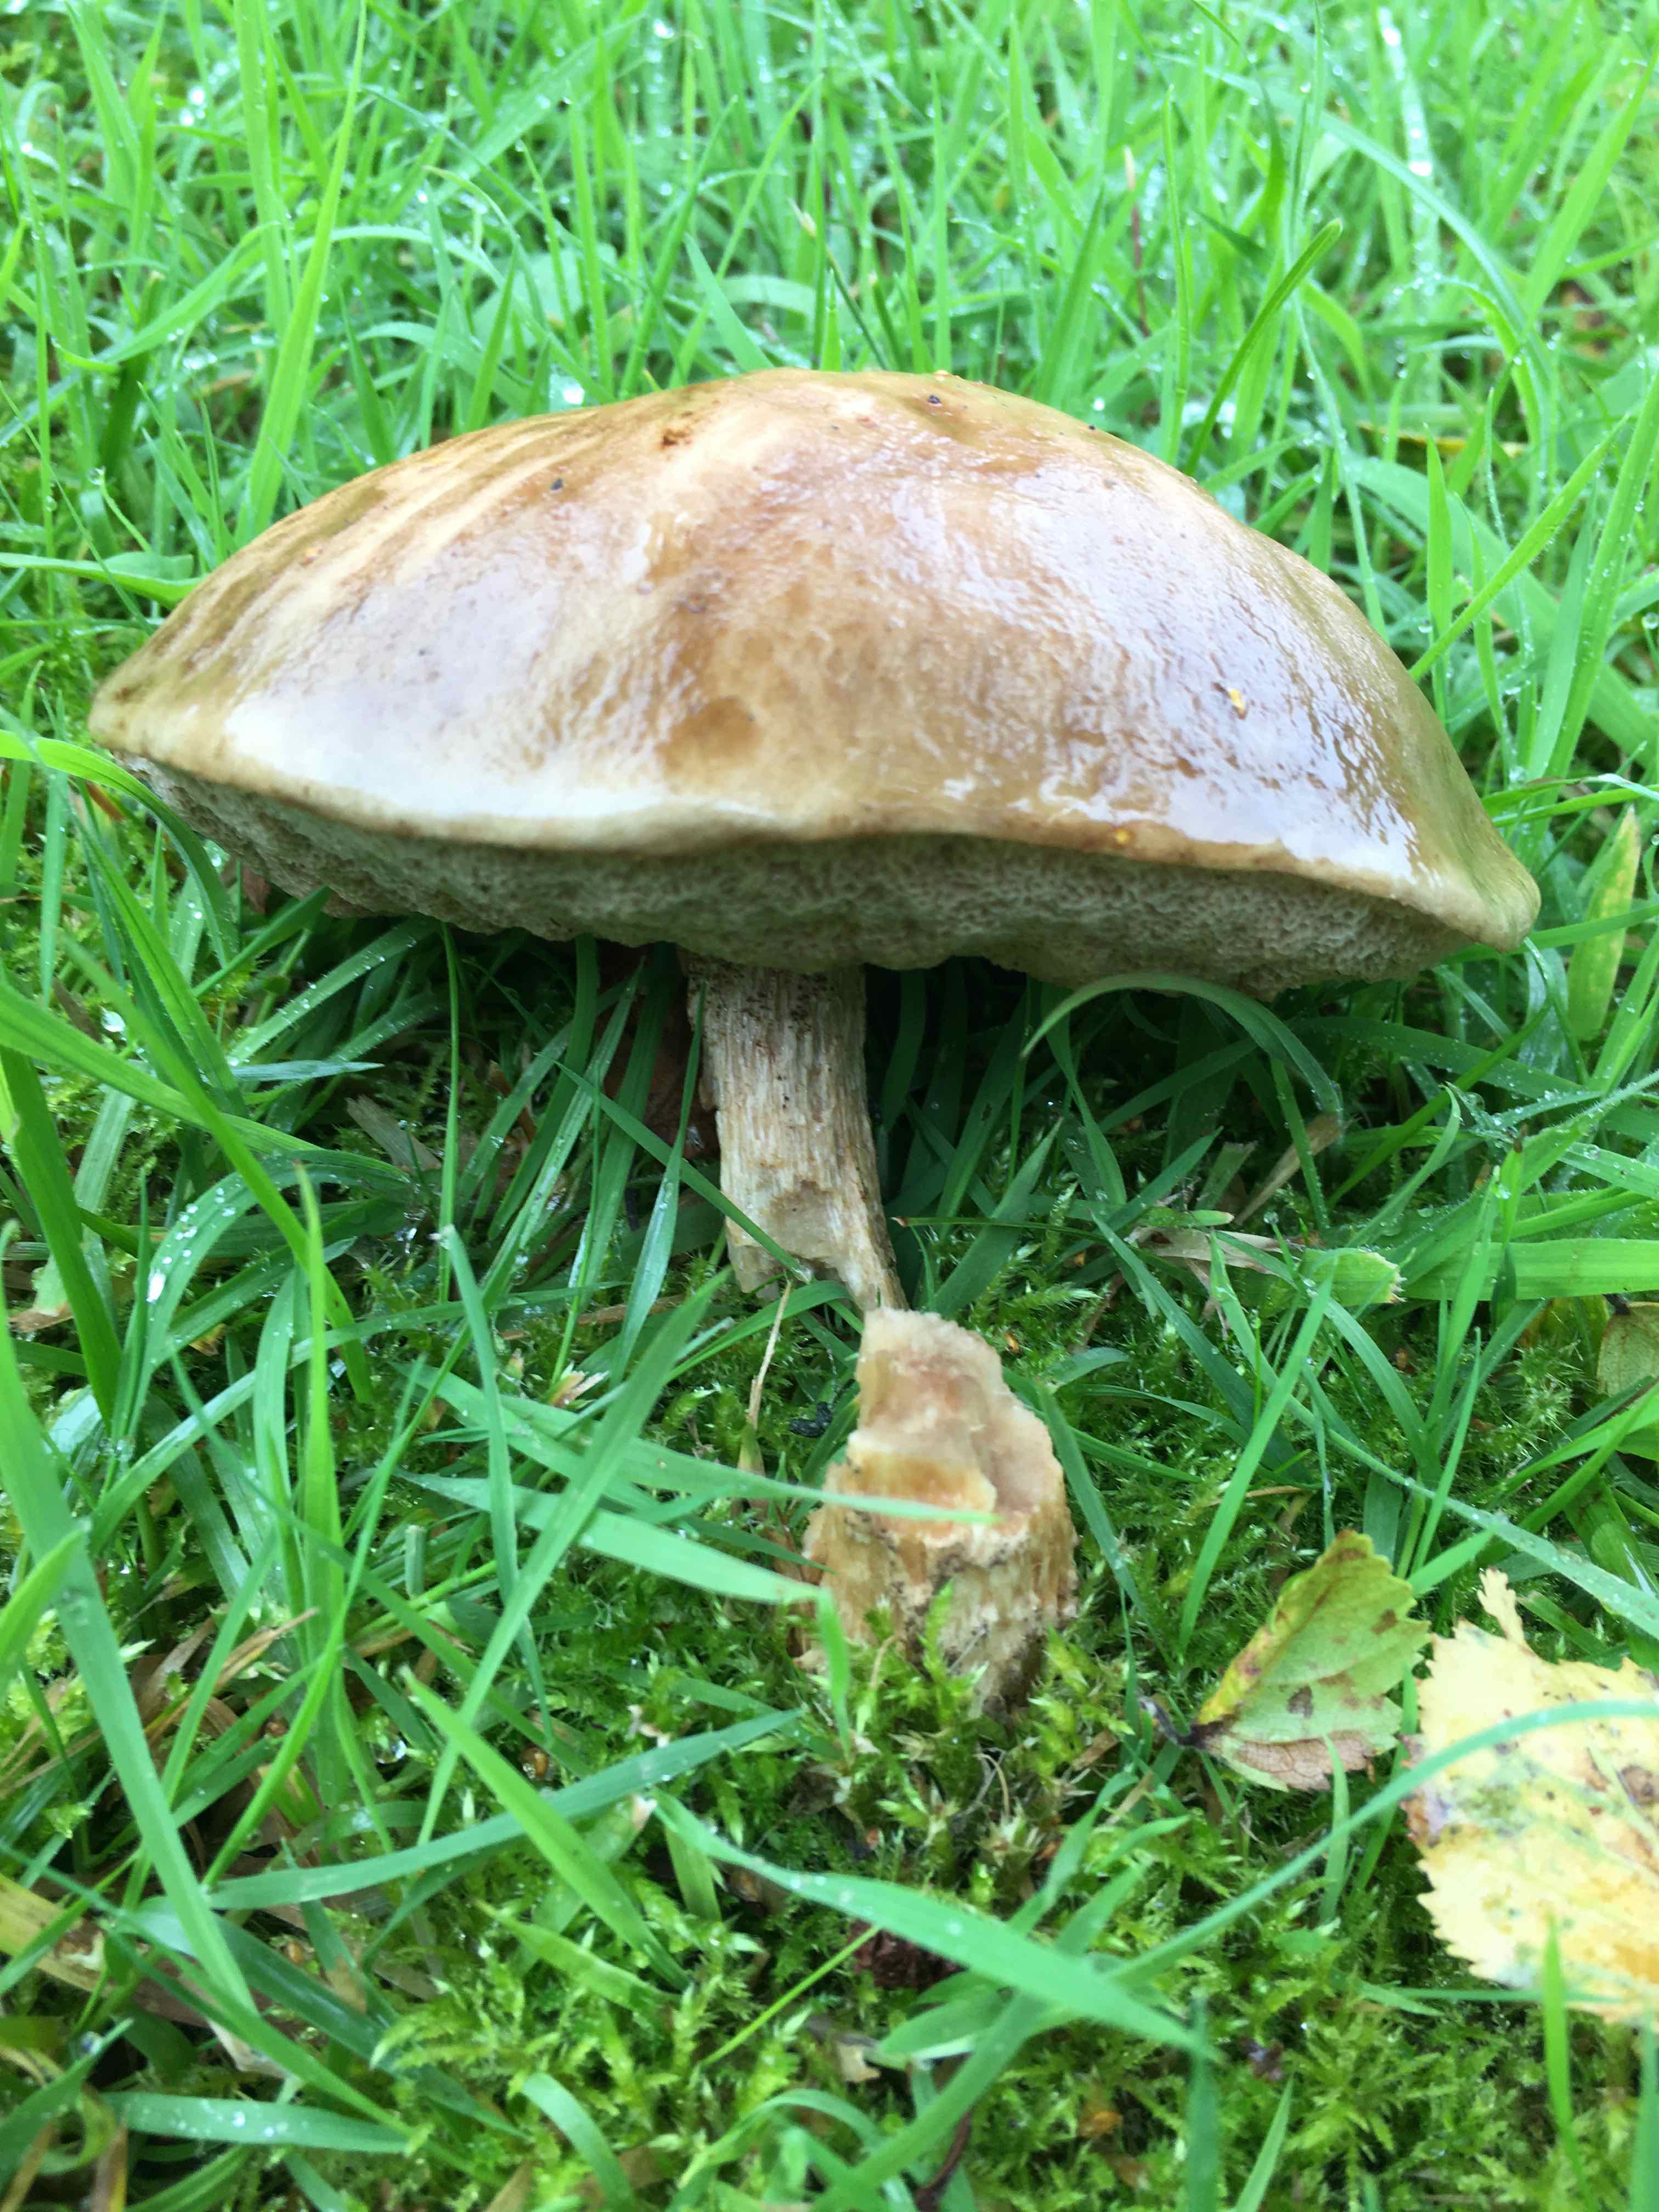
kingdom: Fungi
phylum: Basidiomycota
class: Agaricomycetes
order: Boletales
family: Boletaceae
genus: Leccinum
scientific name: Leccinum
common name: skælrørhat
